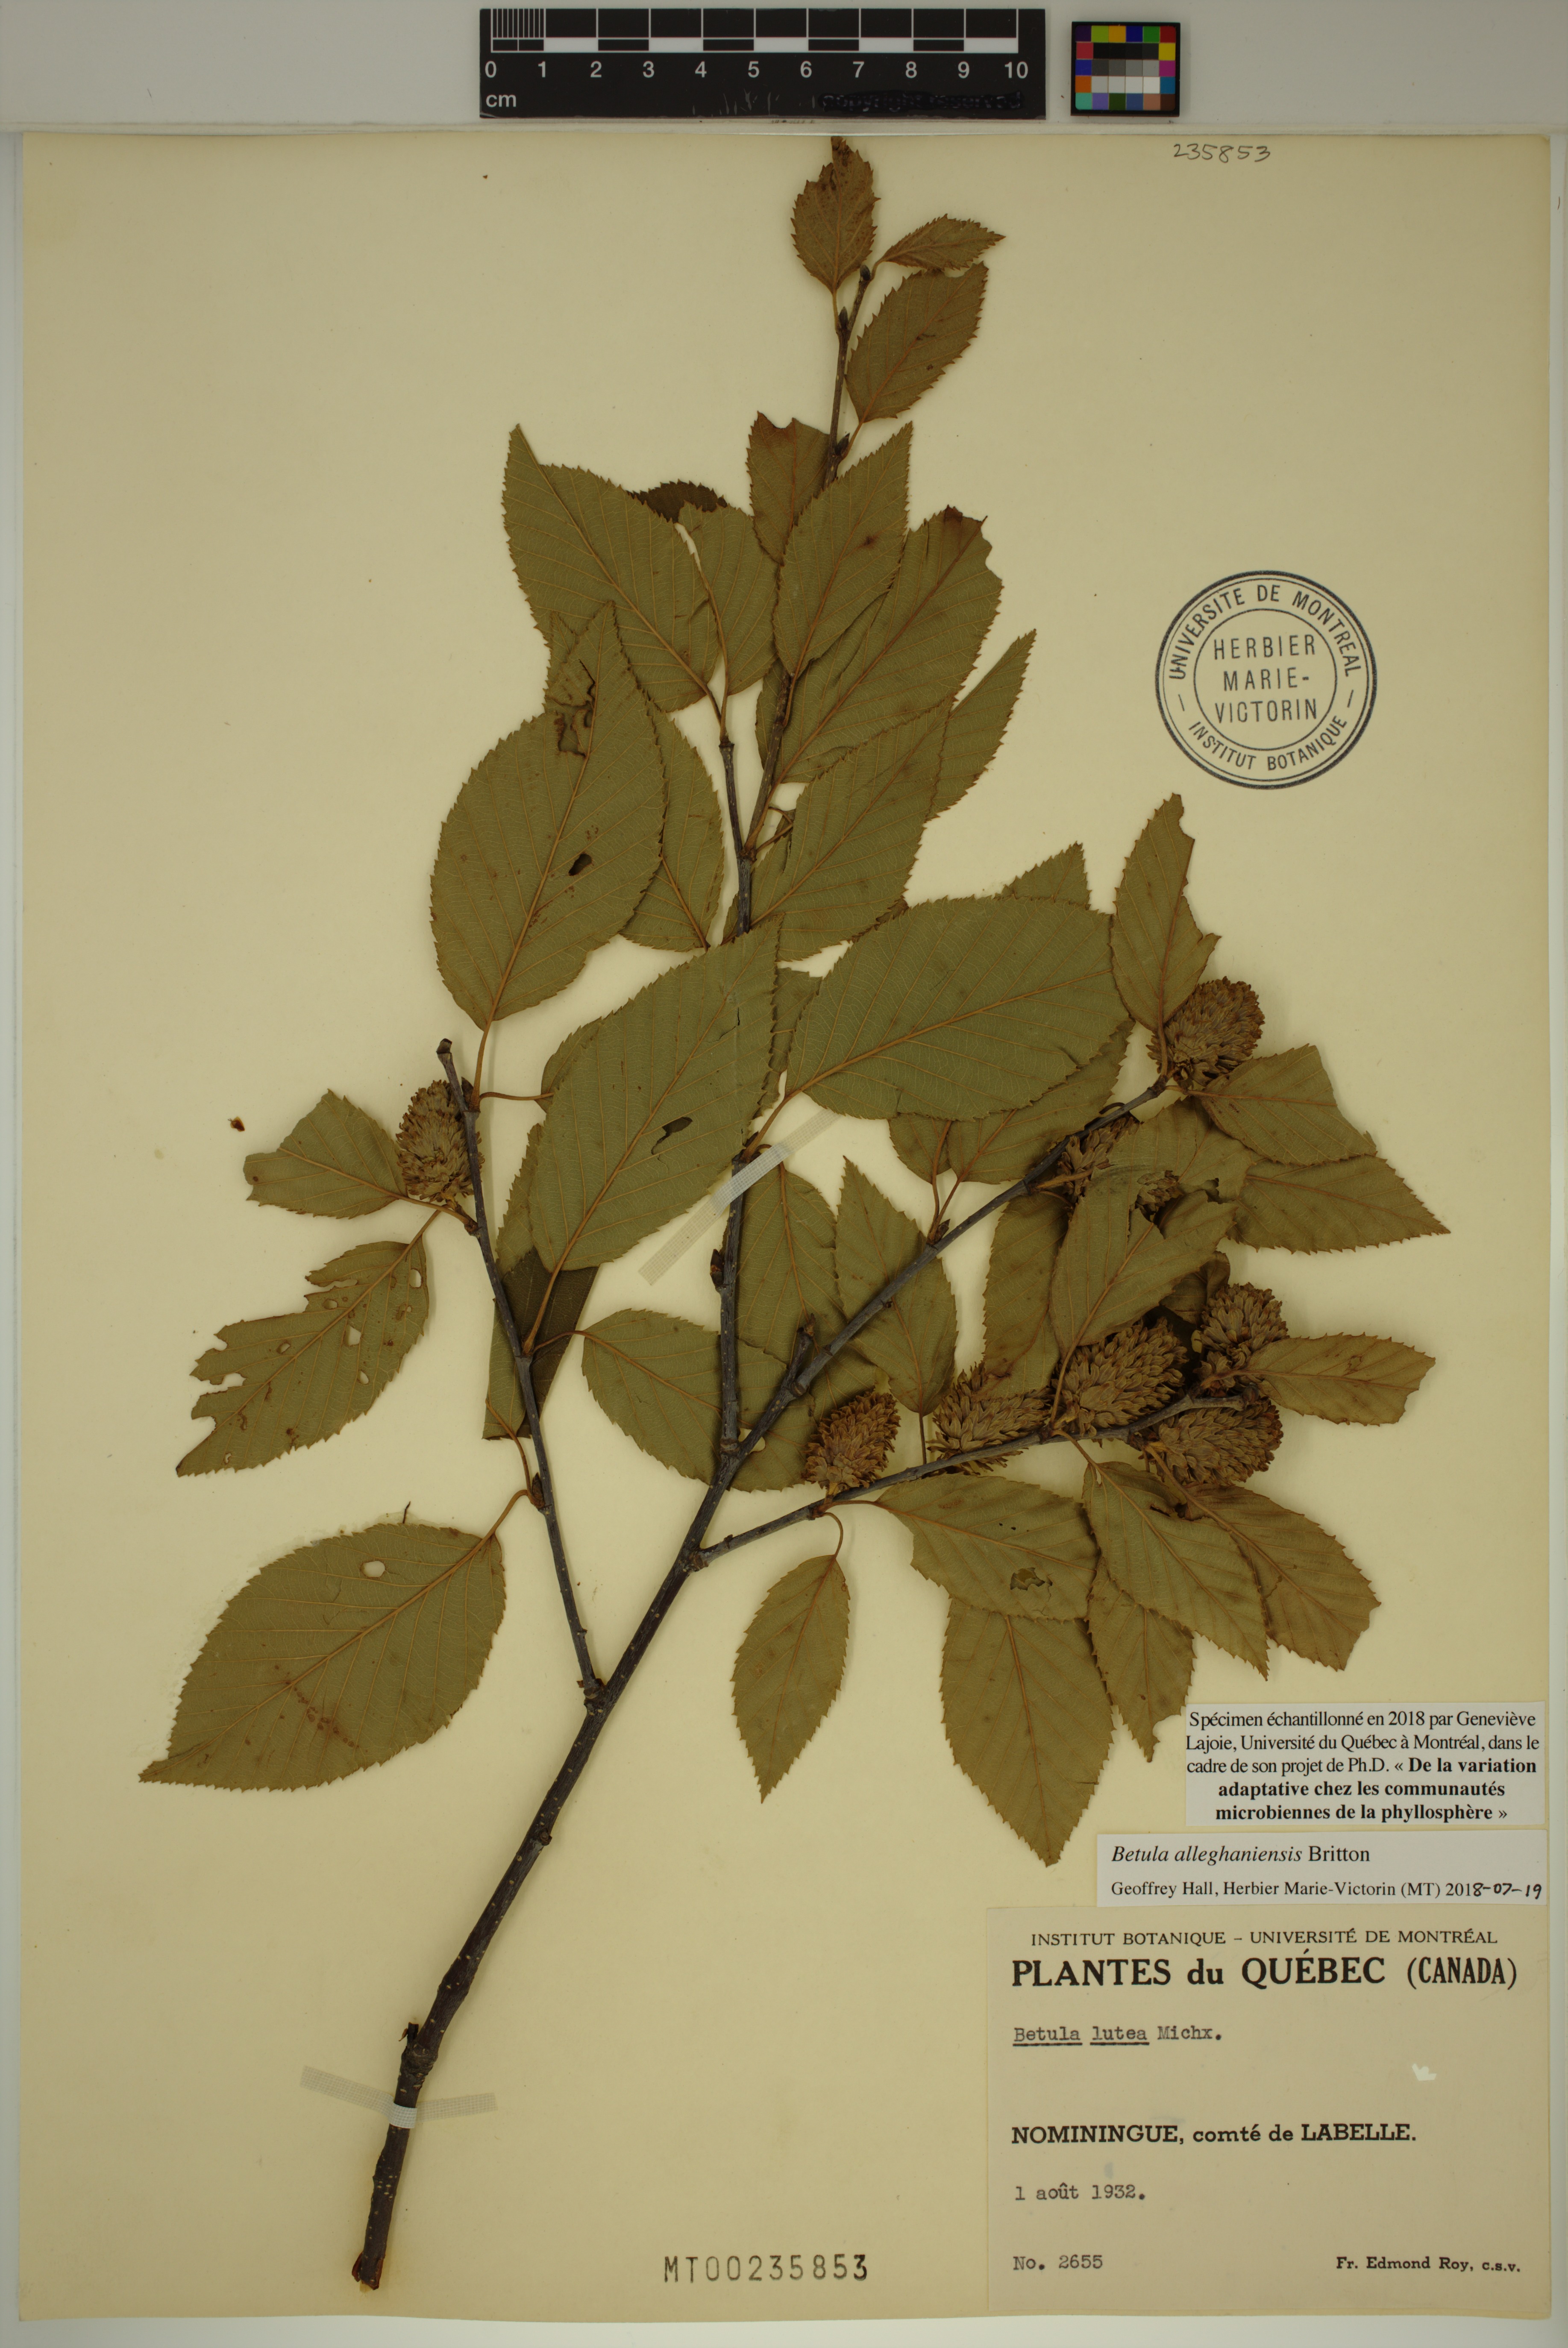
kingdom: Plantae
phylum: Tracheophyta
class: Magnoliopsida
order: Fagales
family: Betulaceae
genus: Betula
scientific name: Betula alleghaniensis
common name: Yellow birch
